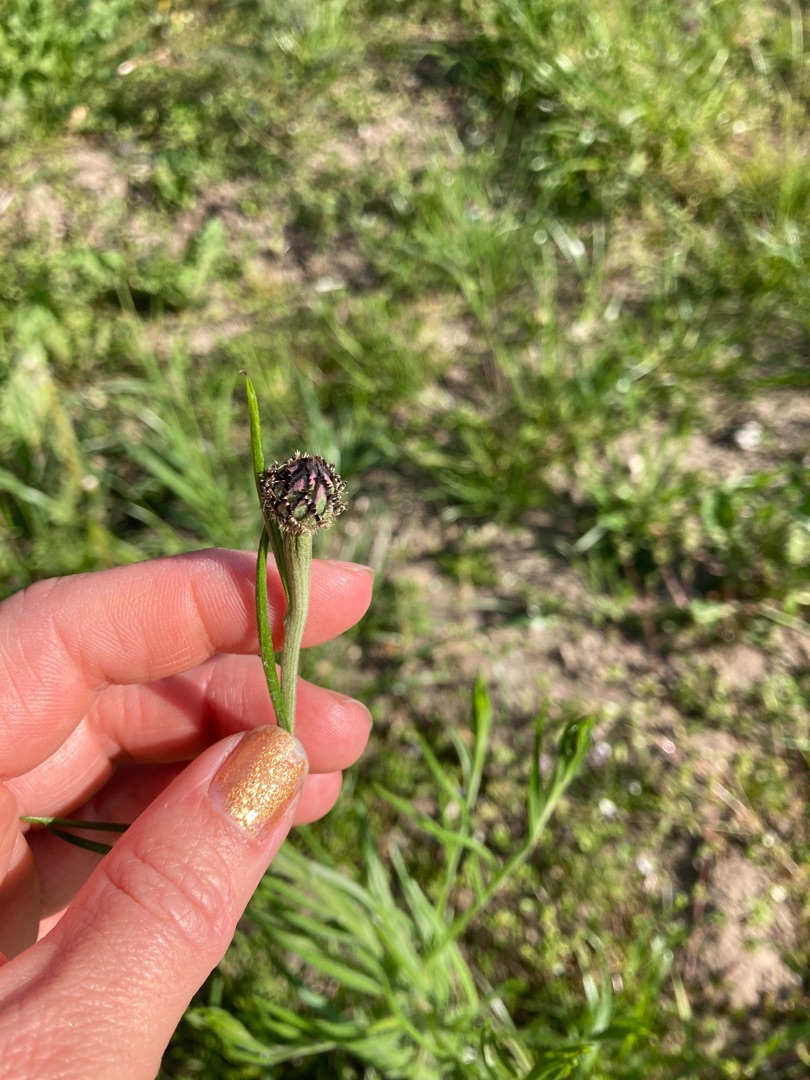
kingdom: Plantae
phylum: Tracheophyta
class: Magnoliopsida
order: Asterales
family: Asteraceae
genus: Centaurea
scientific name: Centaurea cyanus
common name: Kornblomst
